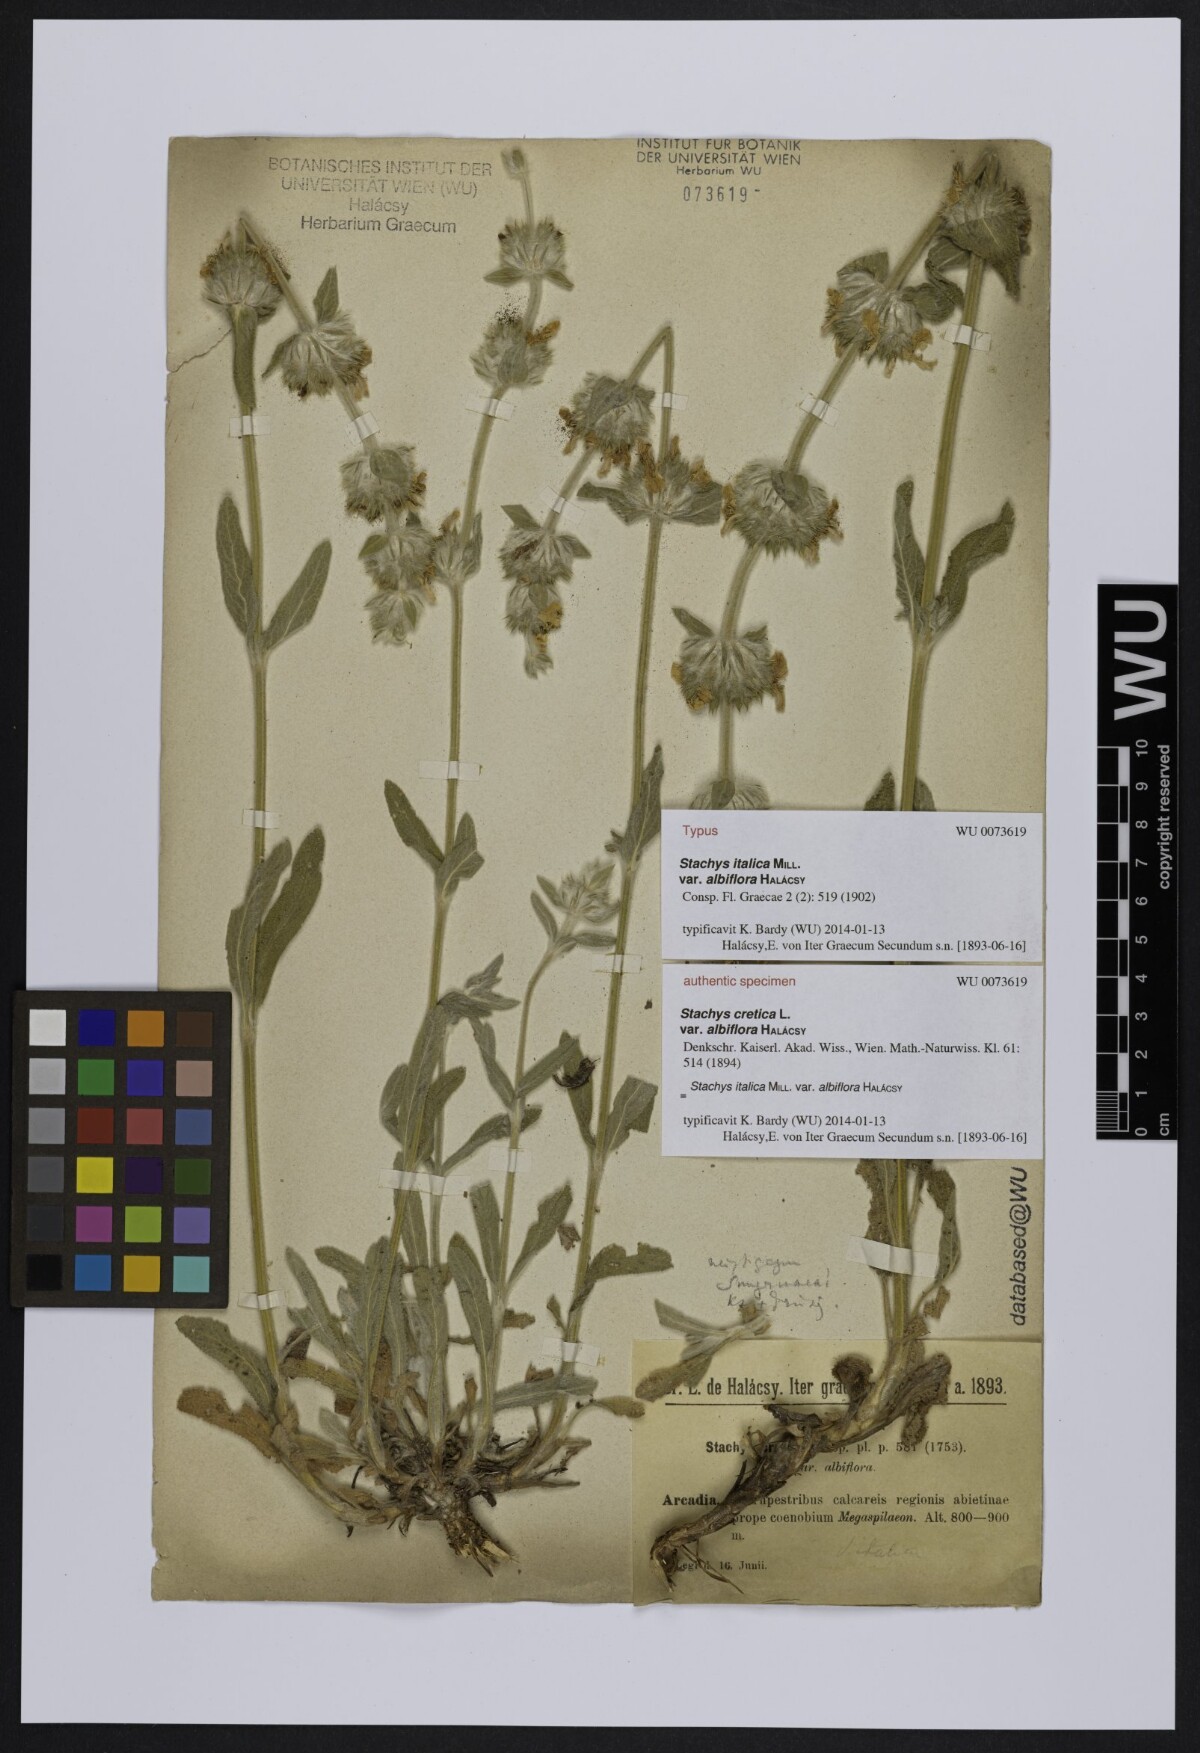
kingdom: Plantae
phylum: Tracheophyta
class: Magnoliopsida
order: Lamiales
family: Lamiaceae
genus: Stachys
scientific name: Stachys italica
